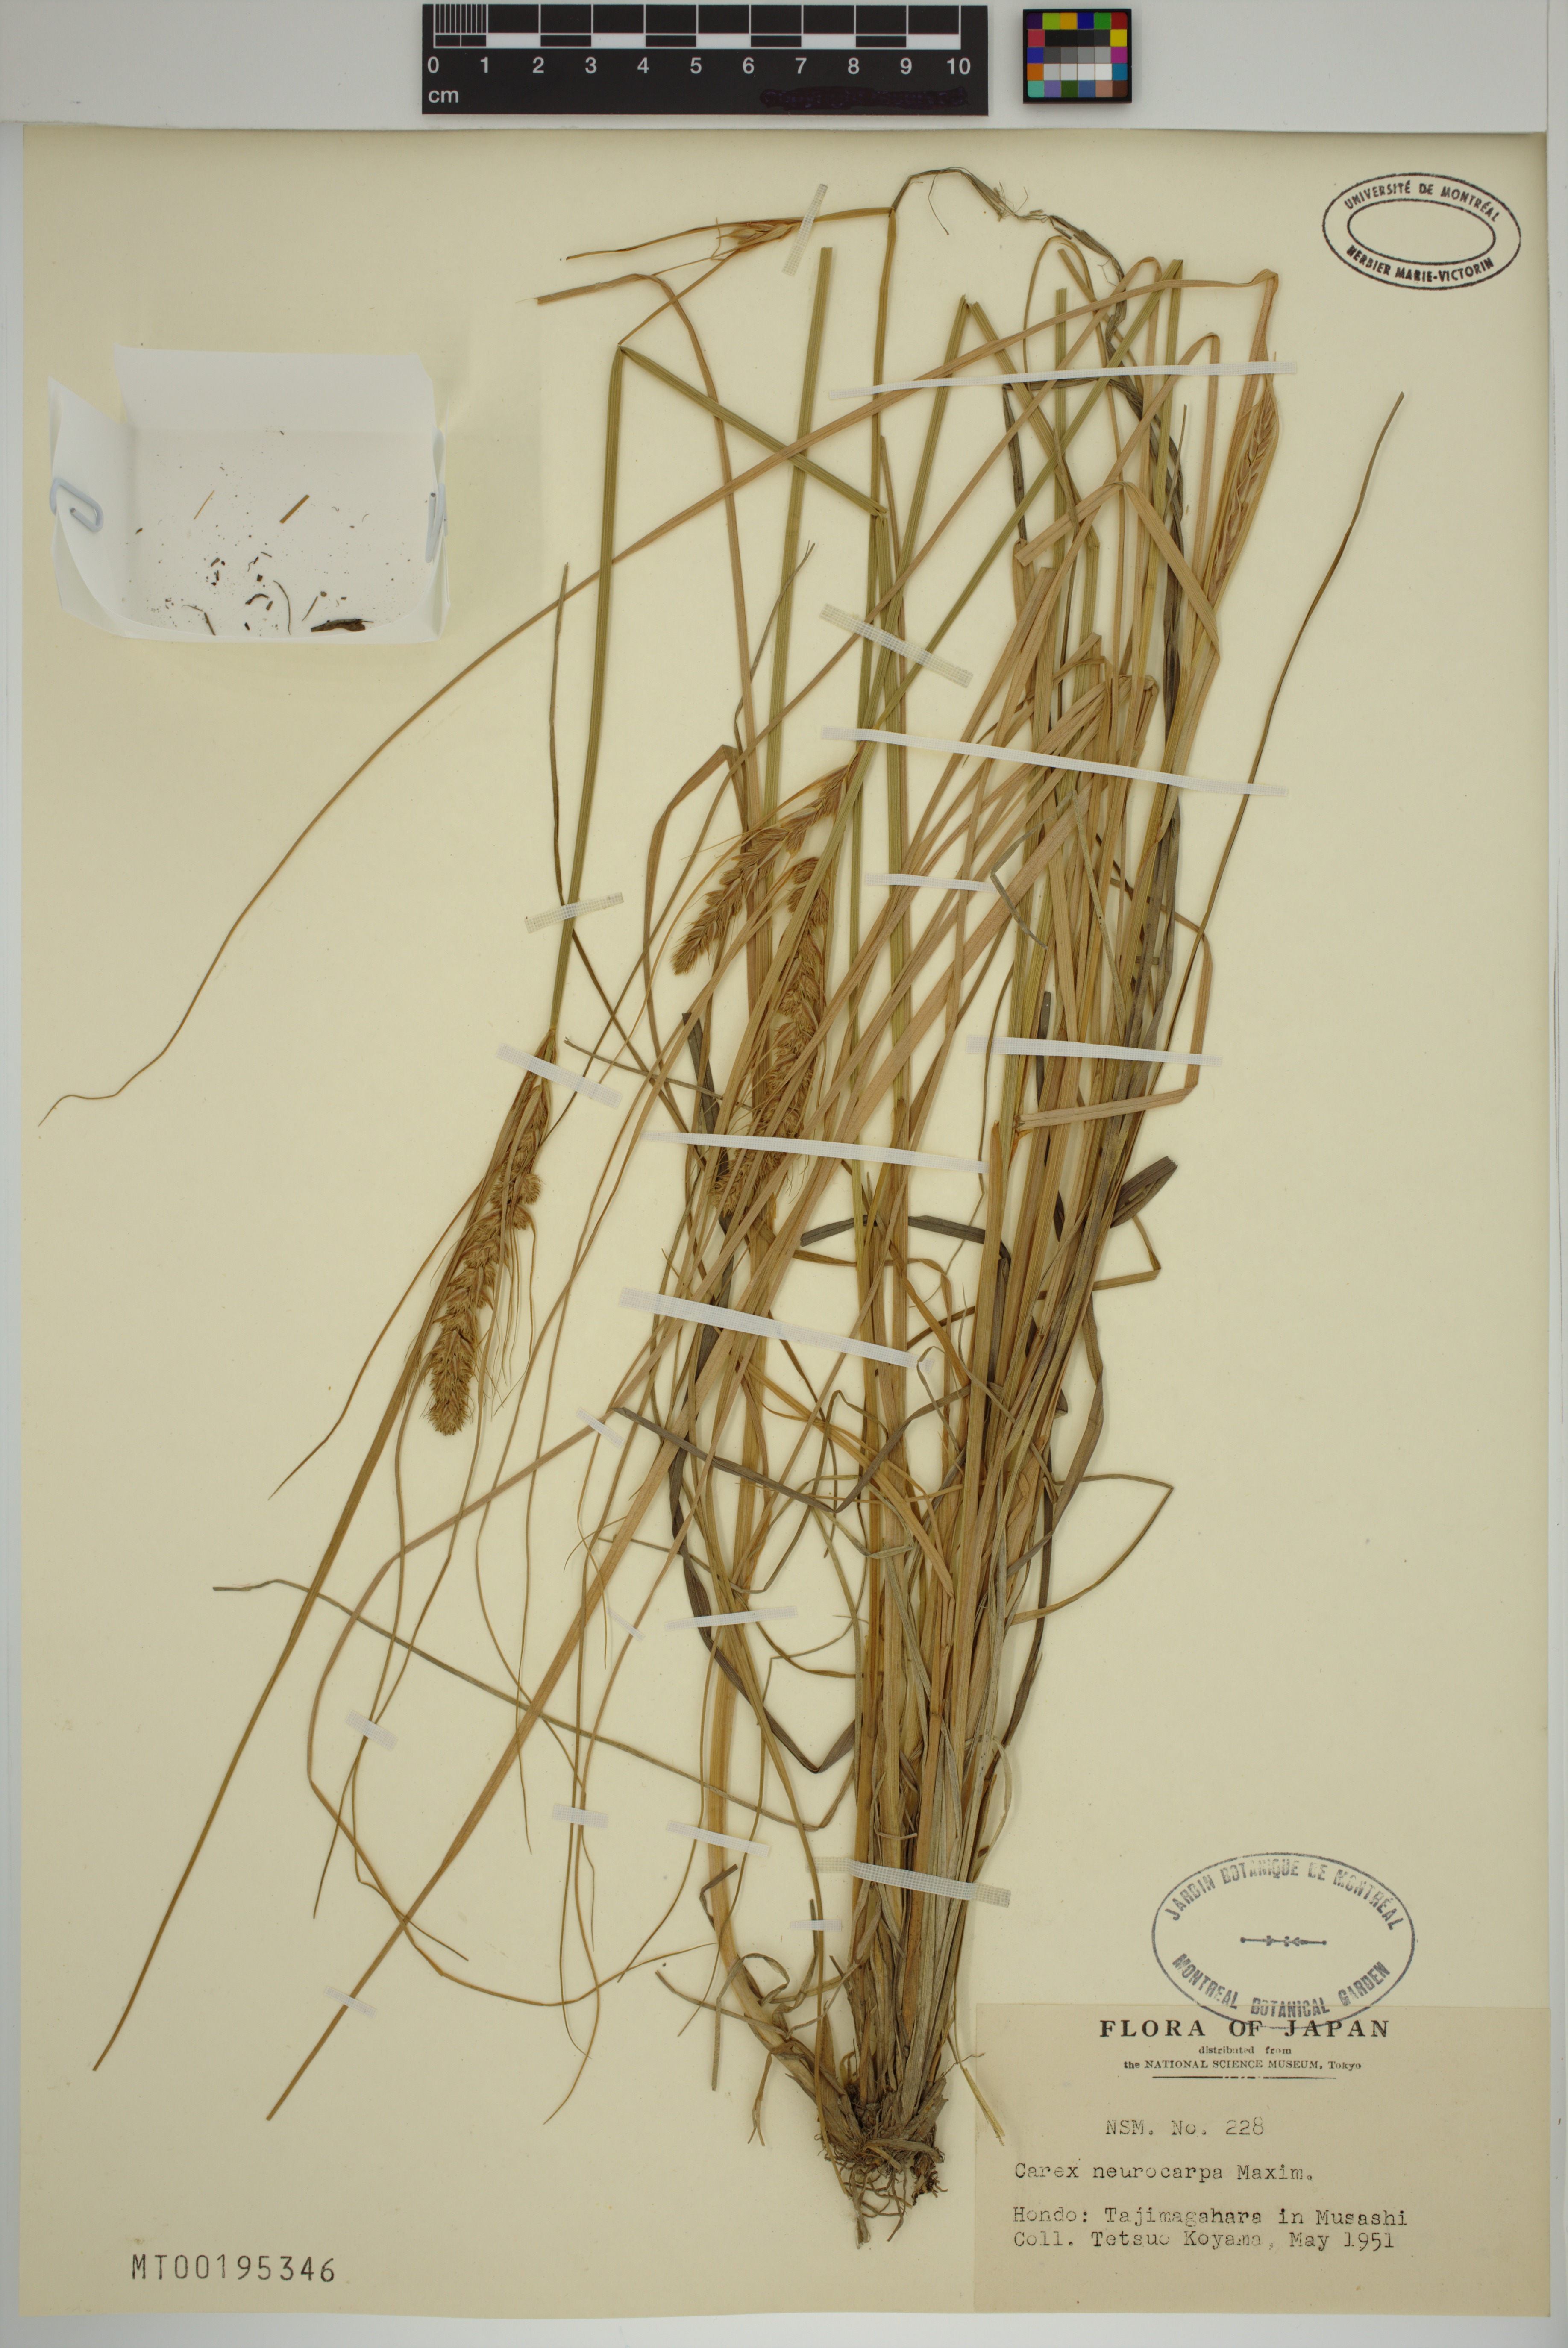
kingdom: Plantae
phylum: Tracheophyta
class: Liliopsida
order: Poales
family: Cyperaceae
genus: Carex
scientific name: Carex neurocarpa
